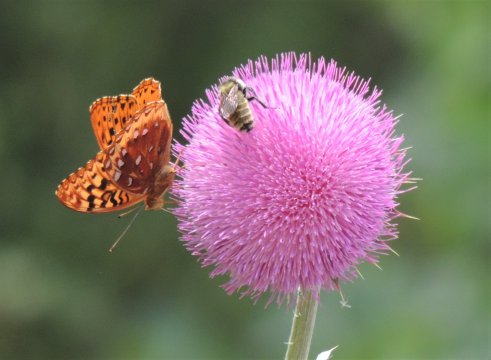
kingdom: Animalia
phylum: Arthropoda
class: Insecta
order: Lepidoptera
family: Nymphalidae
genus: Speyeria
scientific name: Speyeria cybele
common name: Great Spangled Fritillary
